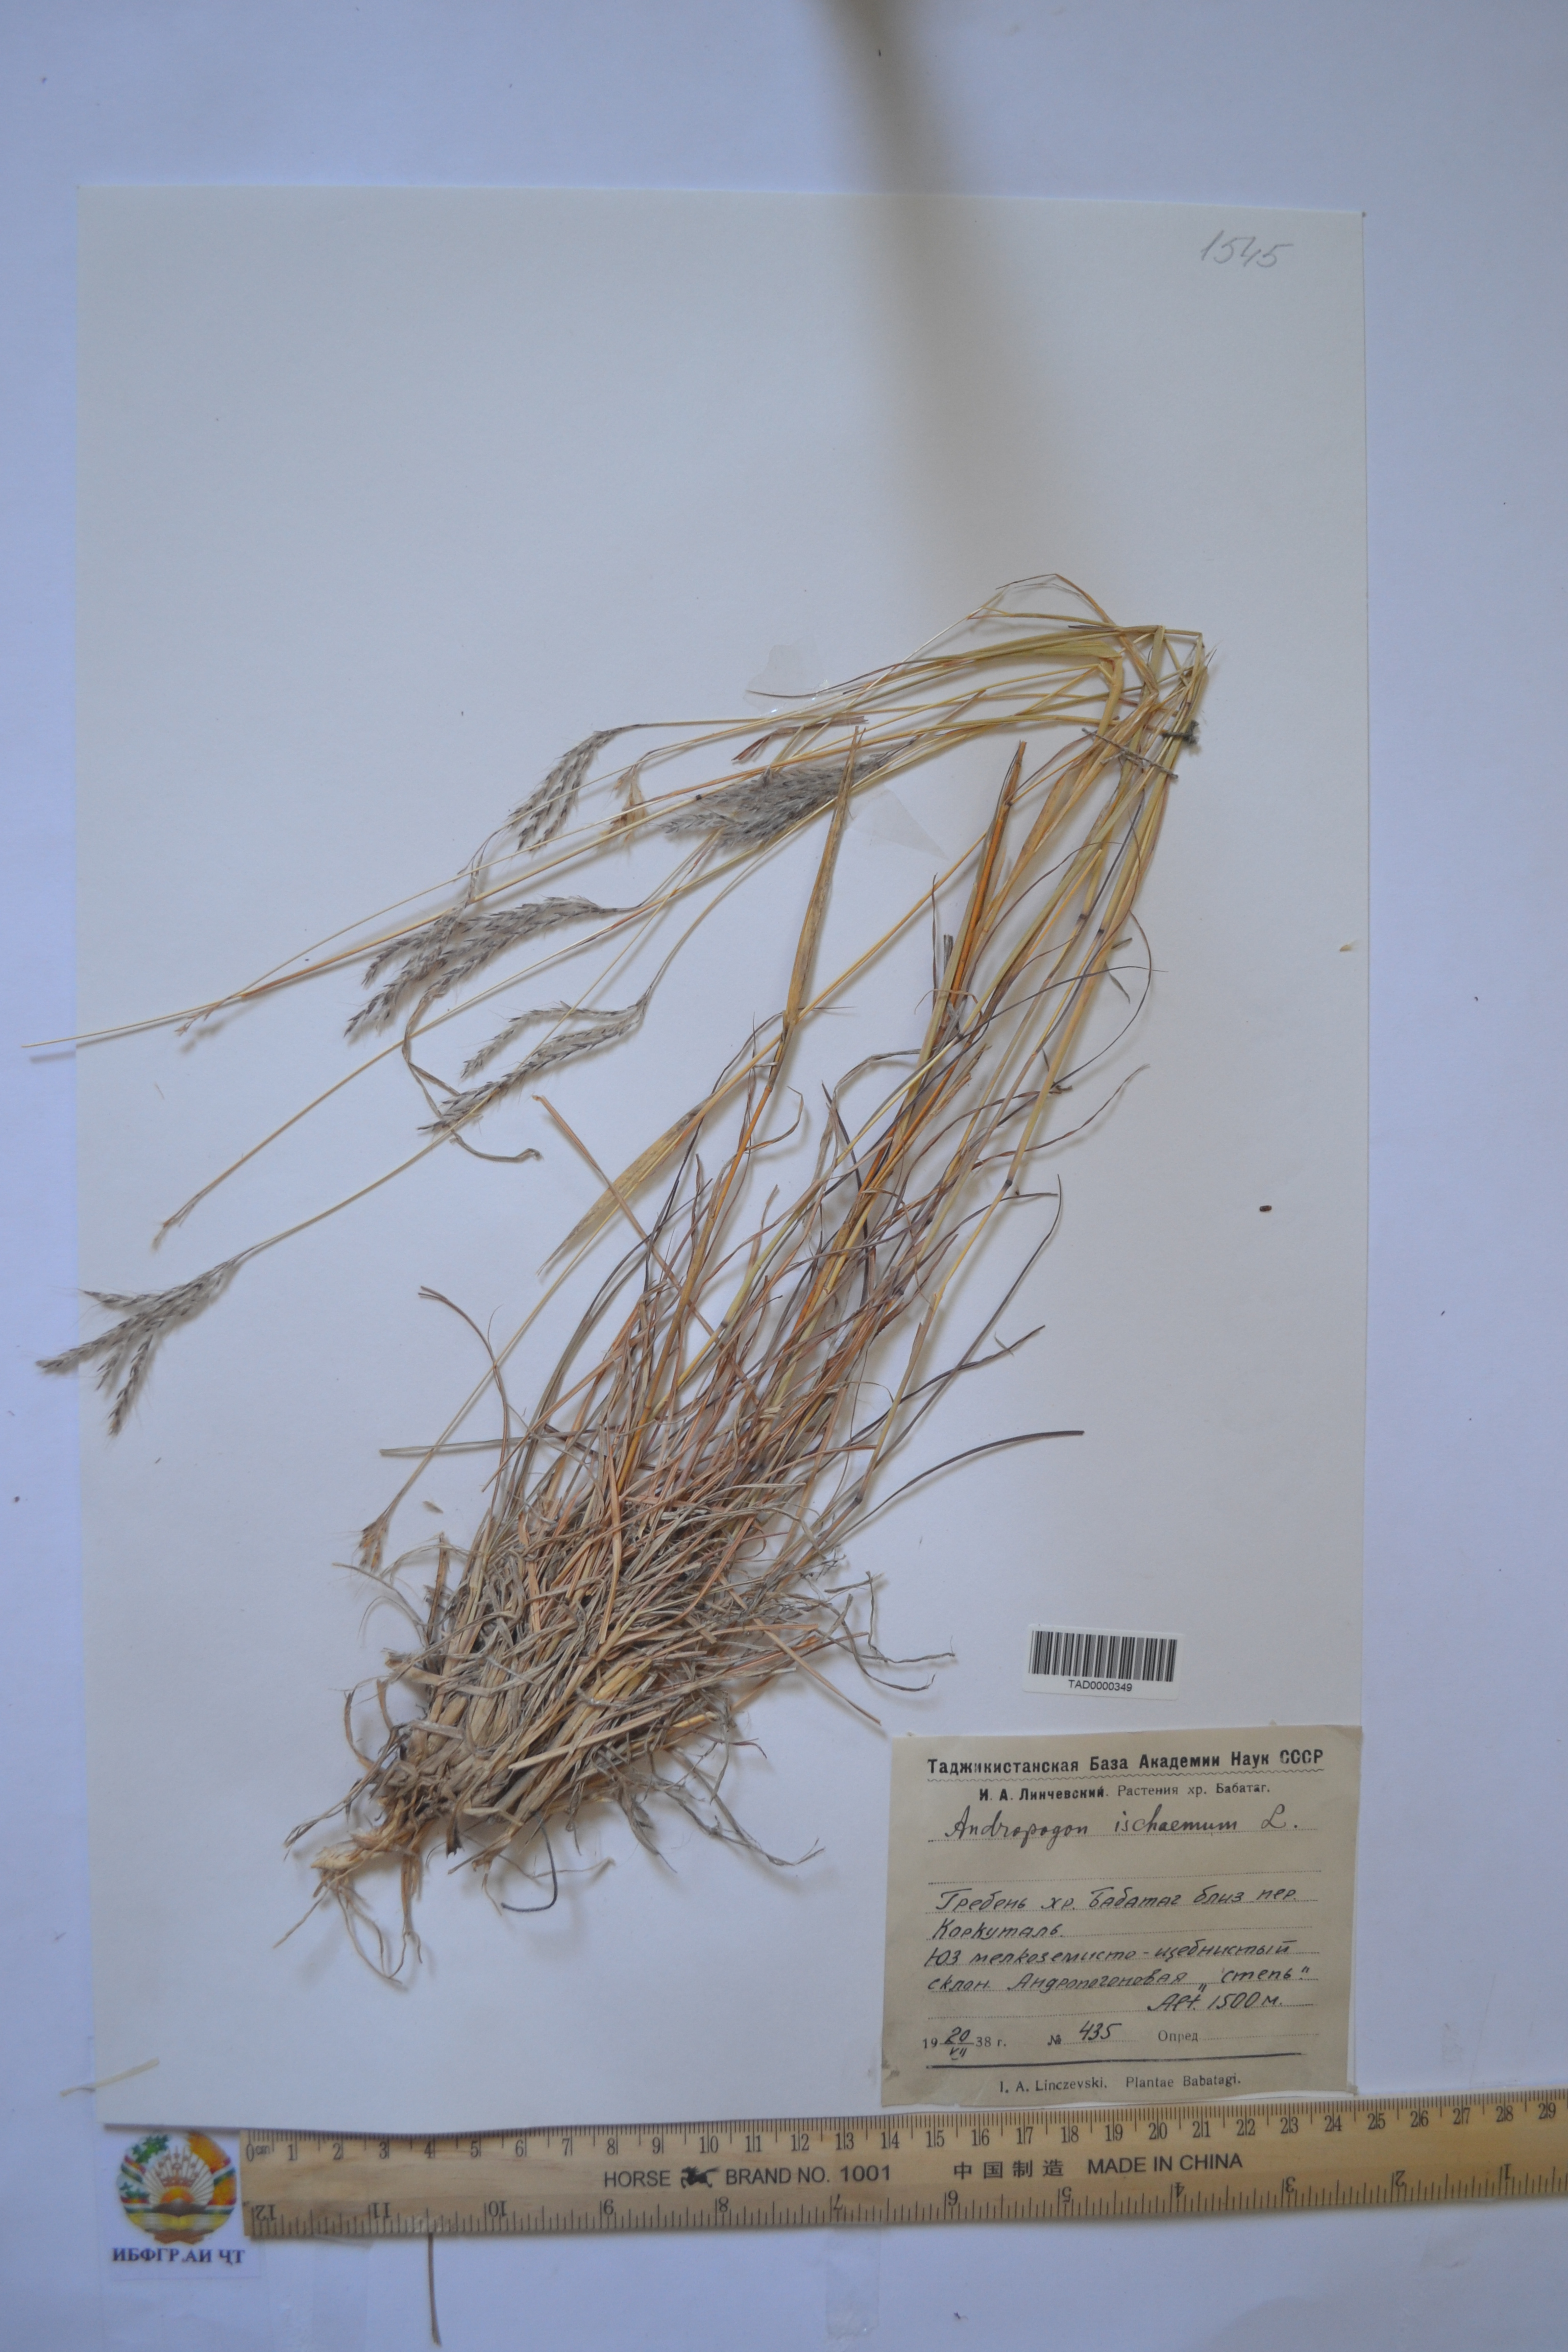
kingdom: Plantae
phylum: Tracheophyta
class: Liliopsida
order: Poales
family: Poaceae
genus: Andropogon
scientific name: Andropogon ischaemum
